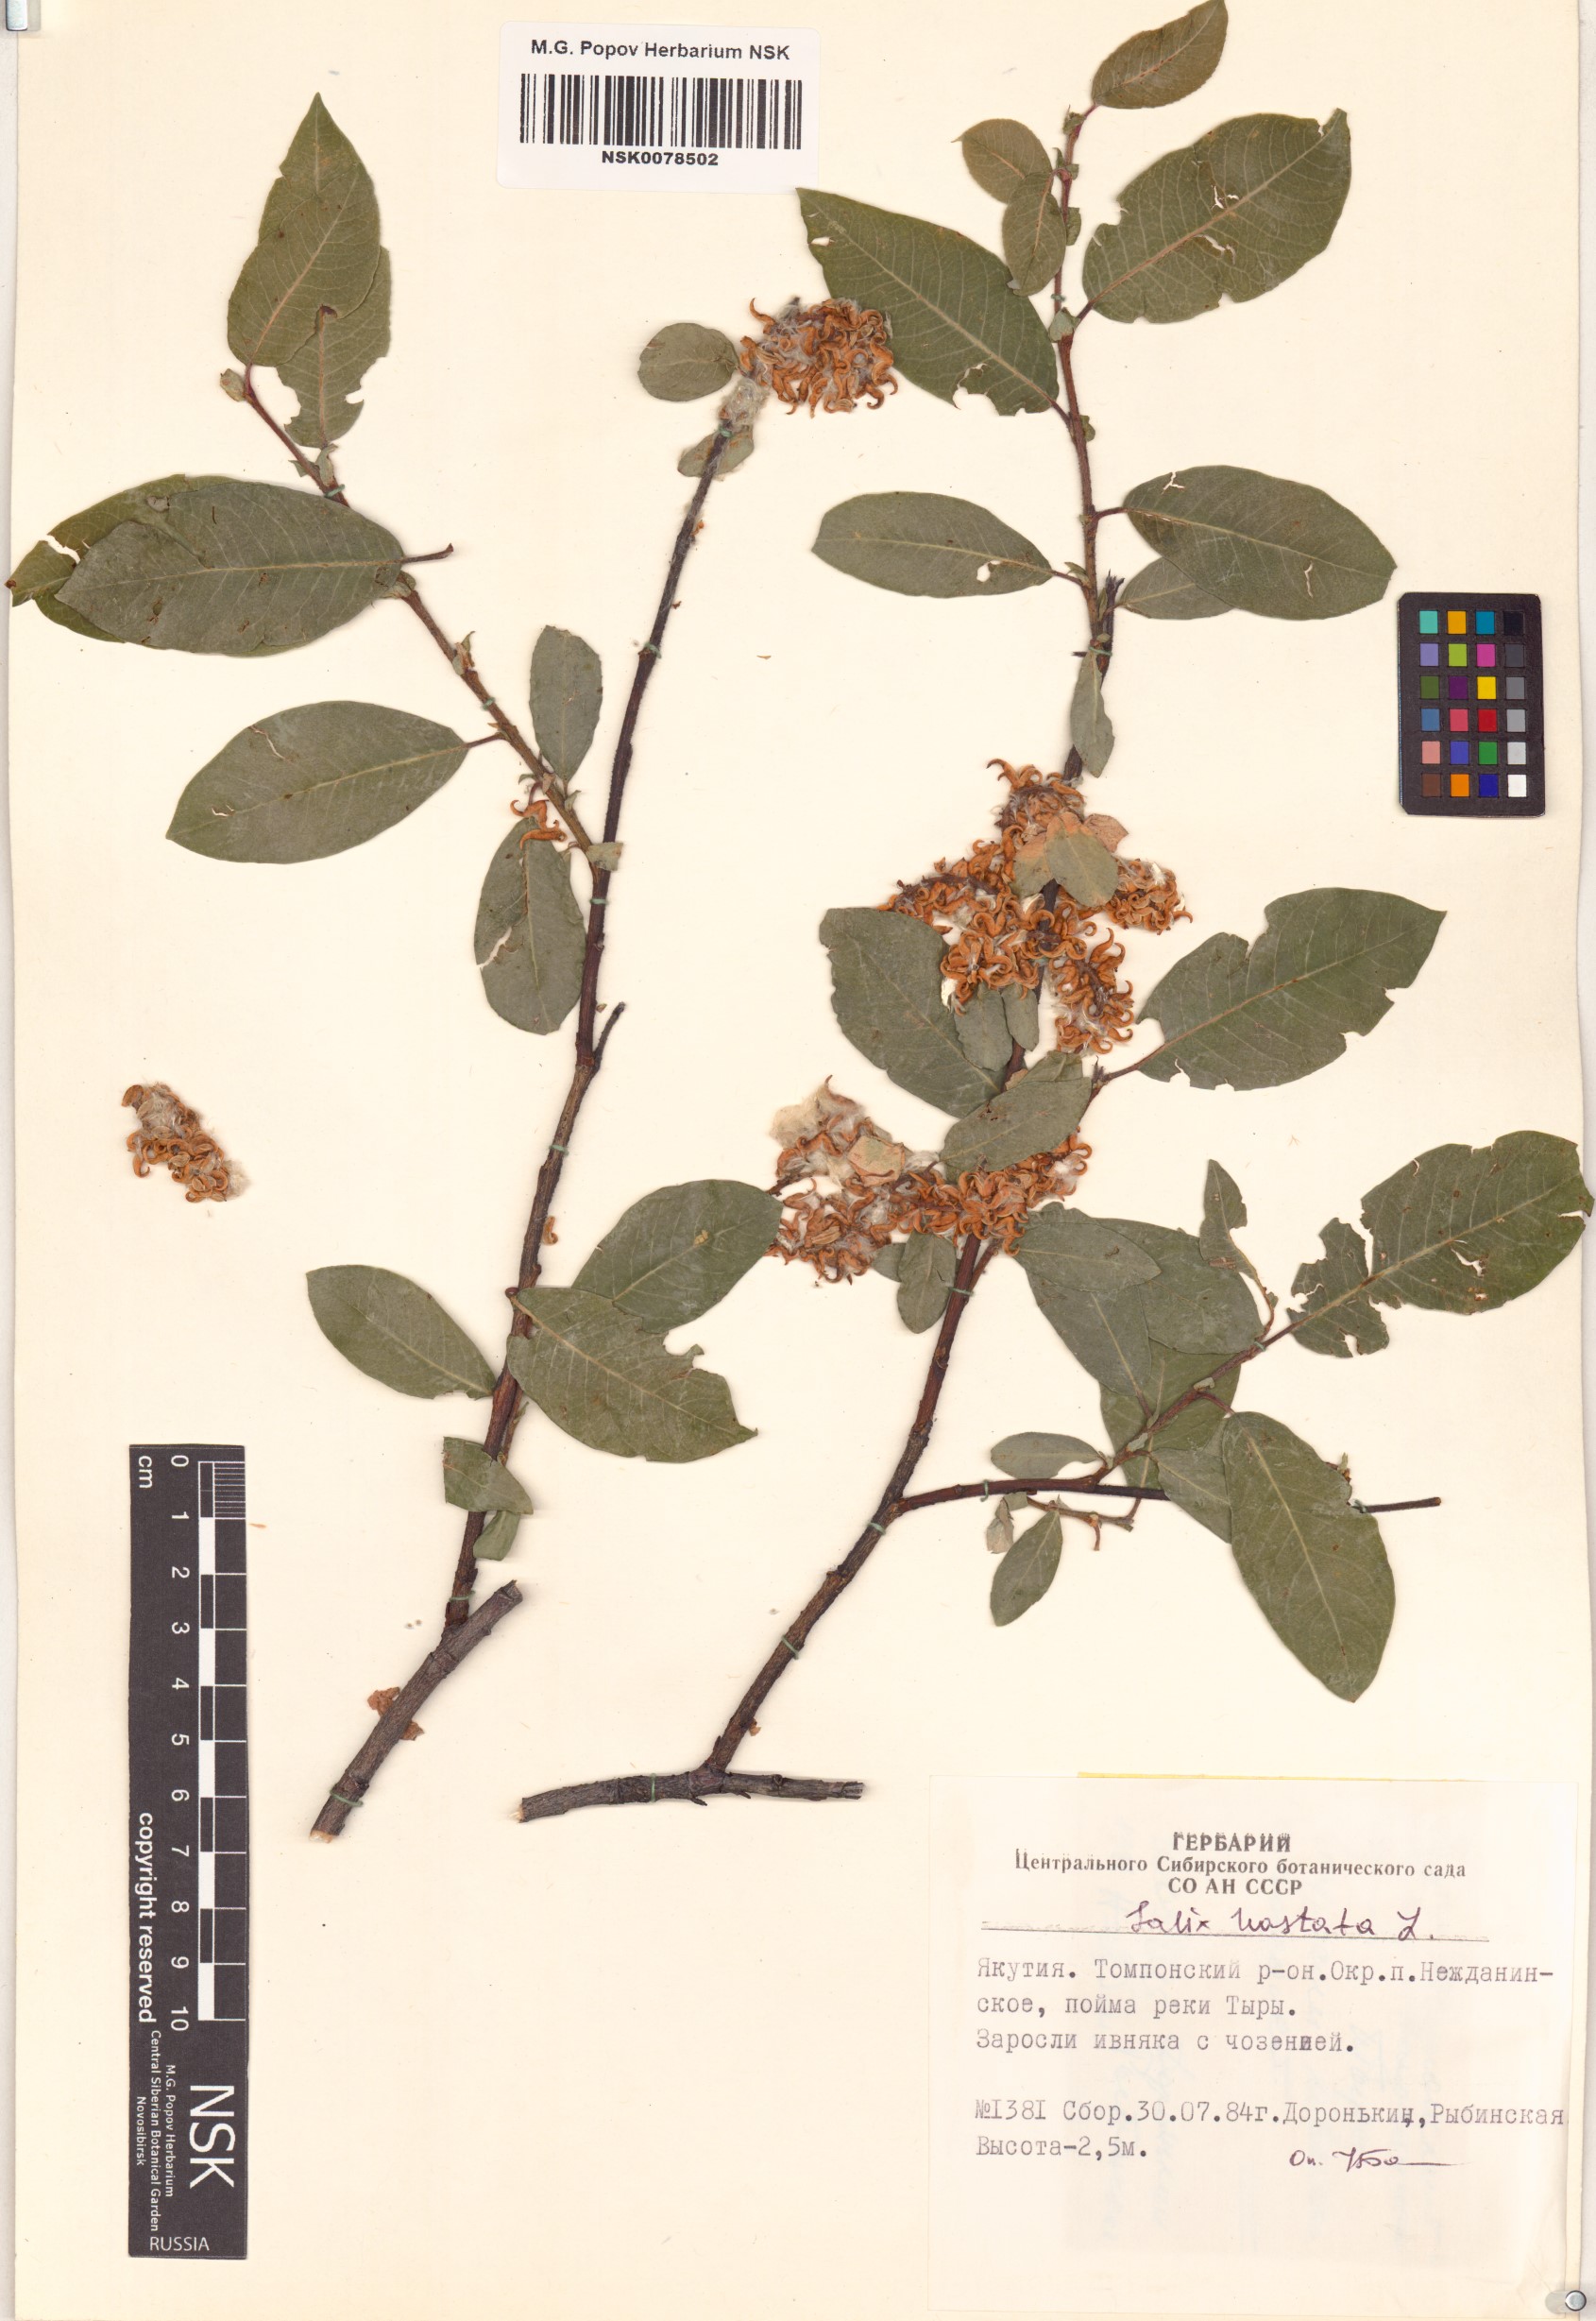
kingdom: Plantae
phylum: Tracheophyta
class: Magnoliopsida
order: Malpighiales
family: Salicaceae
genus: Salix
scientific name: Salix hastata
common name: Halberd willow
